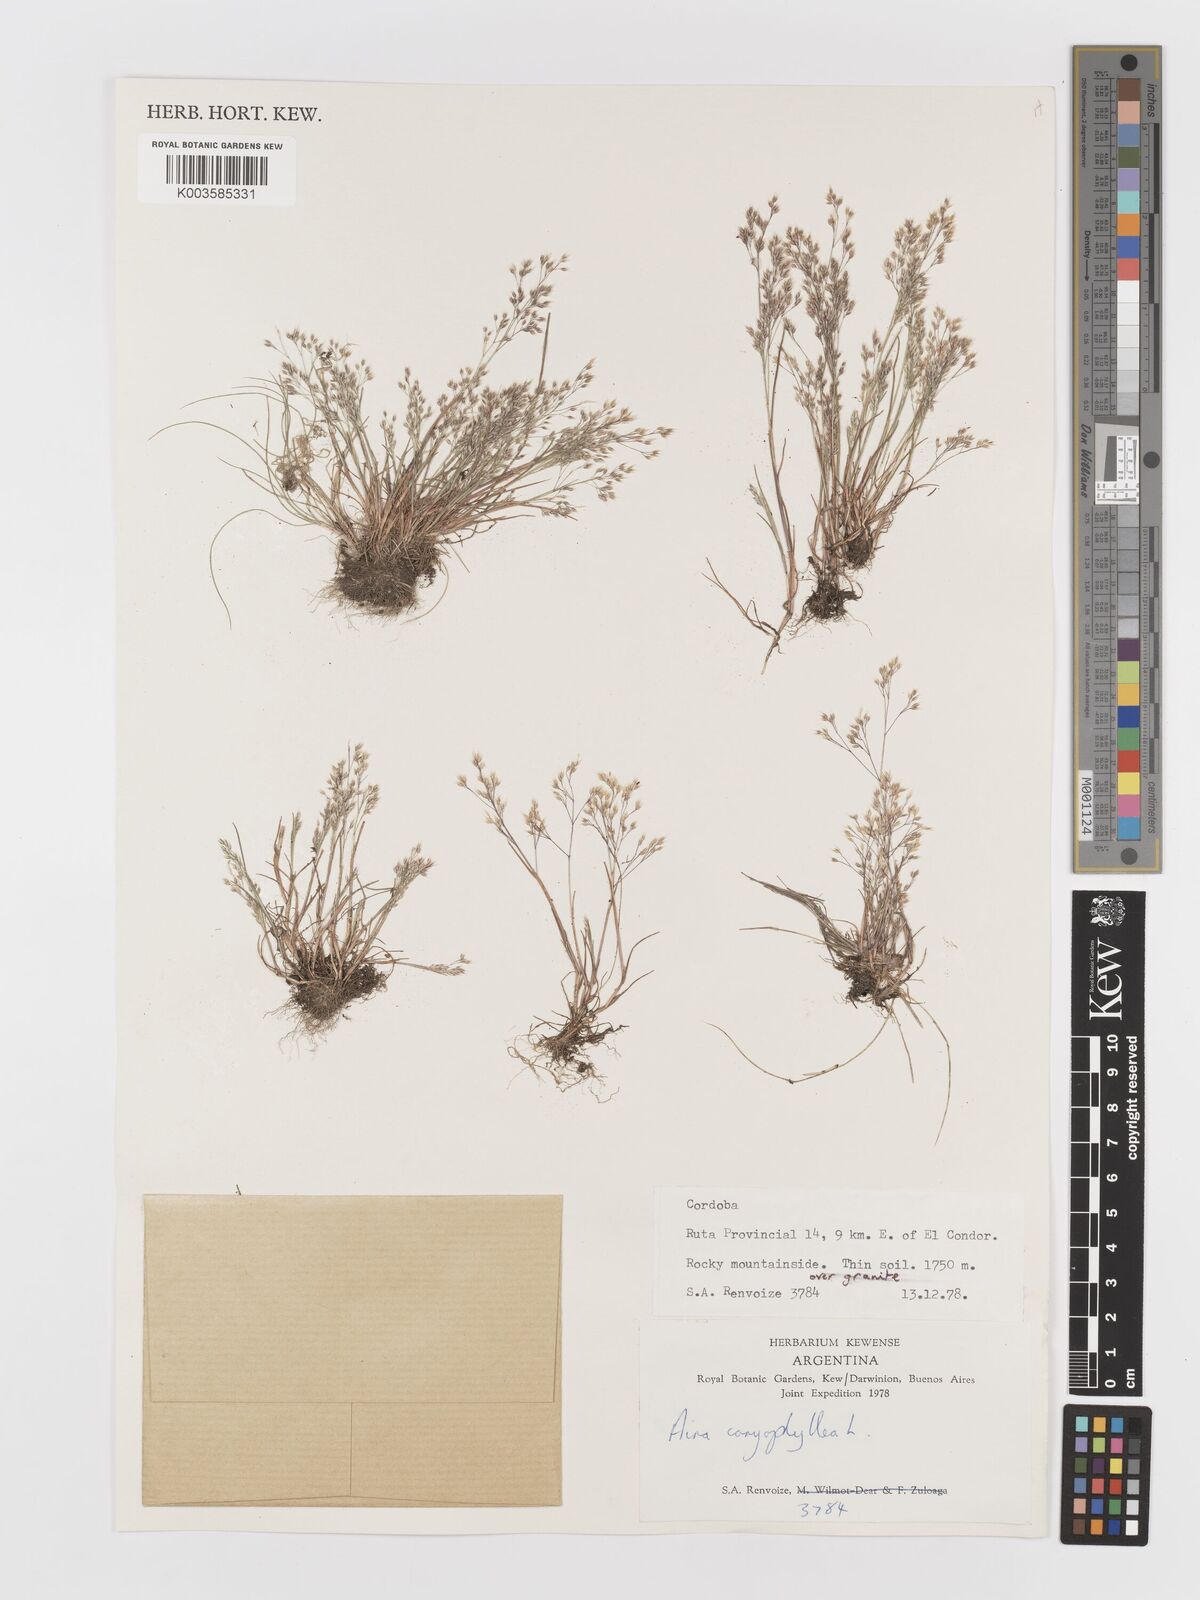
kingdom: Plantae
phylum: Tracheophyta
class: Liliopsida
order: Poales
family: Poaceae
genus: Aira
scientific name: Aira caryophyllea
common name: Silver hairgrass
